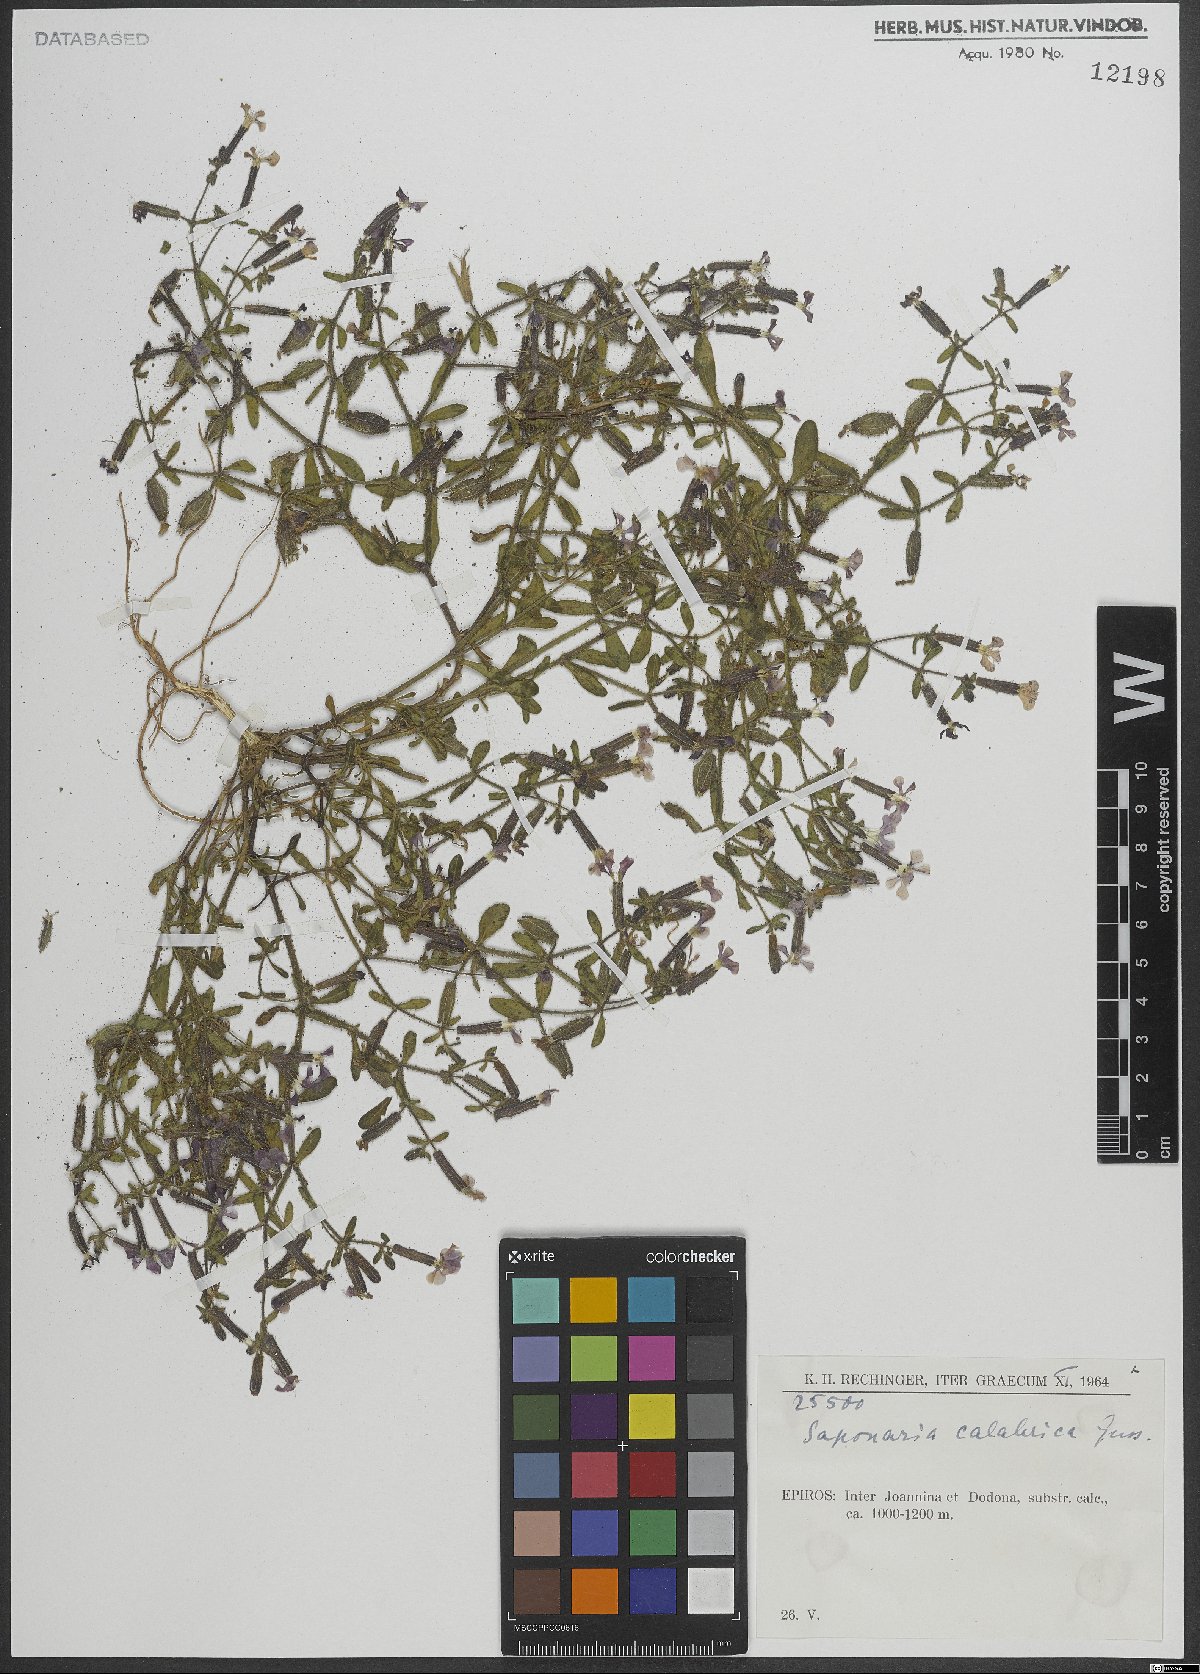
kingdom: Plantae
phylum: Tracheophyta
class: Magnoliopsida
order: Caryophyllales
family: Caryophyllaceae
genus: Saponaria
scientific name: Saponaria calabrica
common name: Adriatic soapwort
